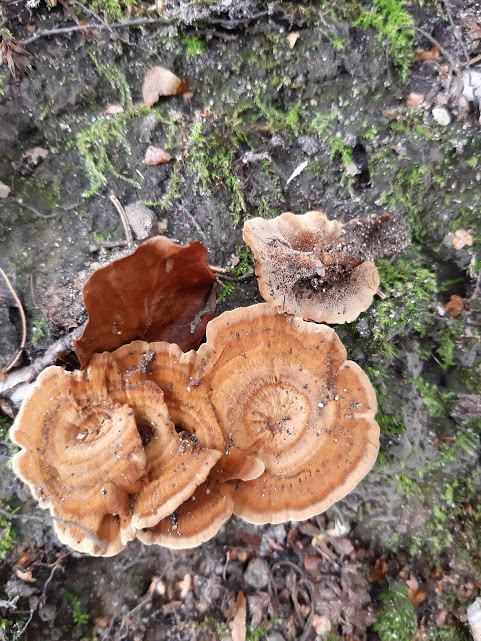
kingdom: Fungi
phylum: Basidiomycota
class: Agaricomycetes
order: Hymenochaetales
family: Hymenochaetaceae
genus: Coltricia
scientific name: Coltricia perennis
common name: almindelig sandporesvamp
